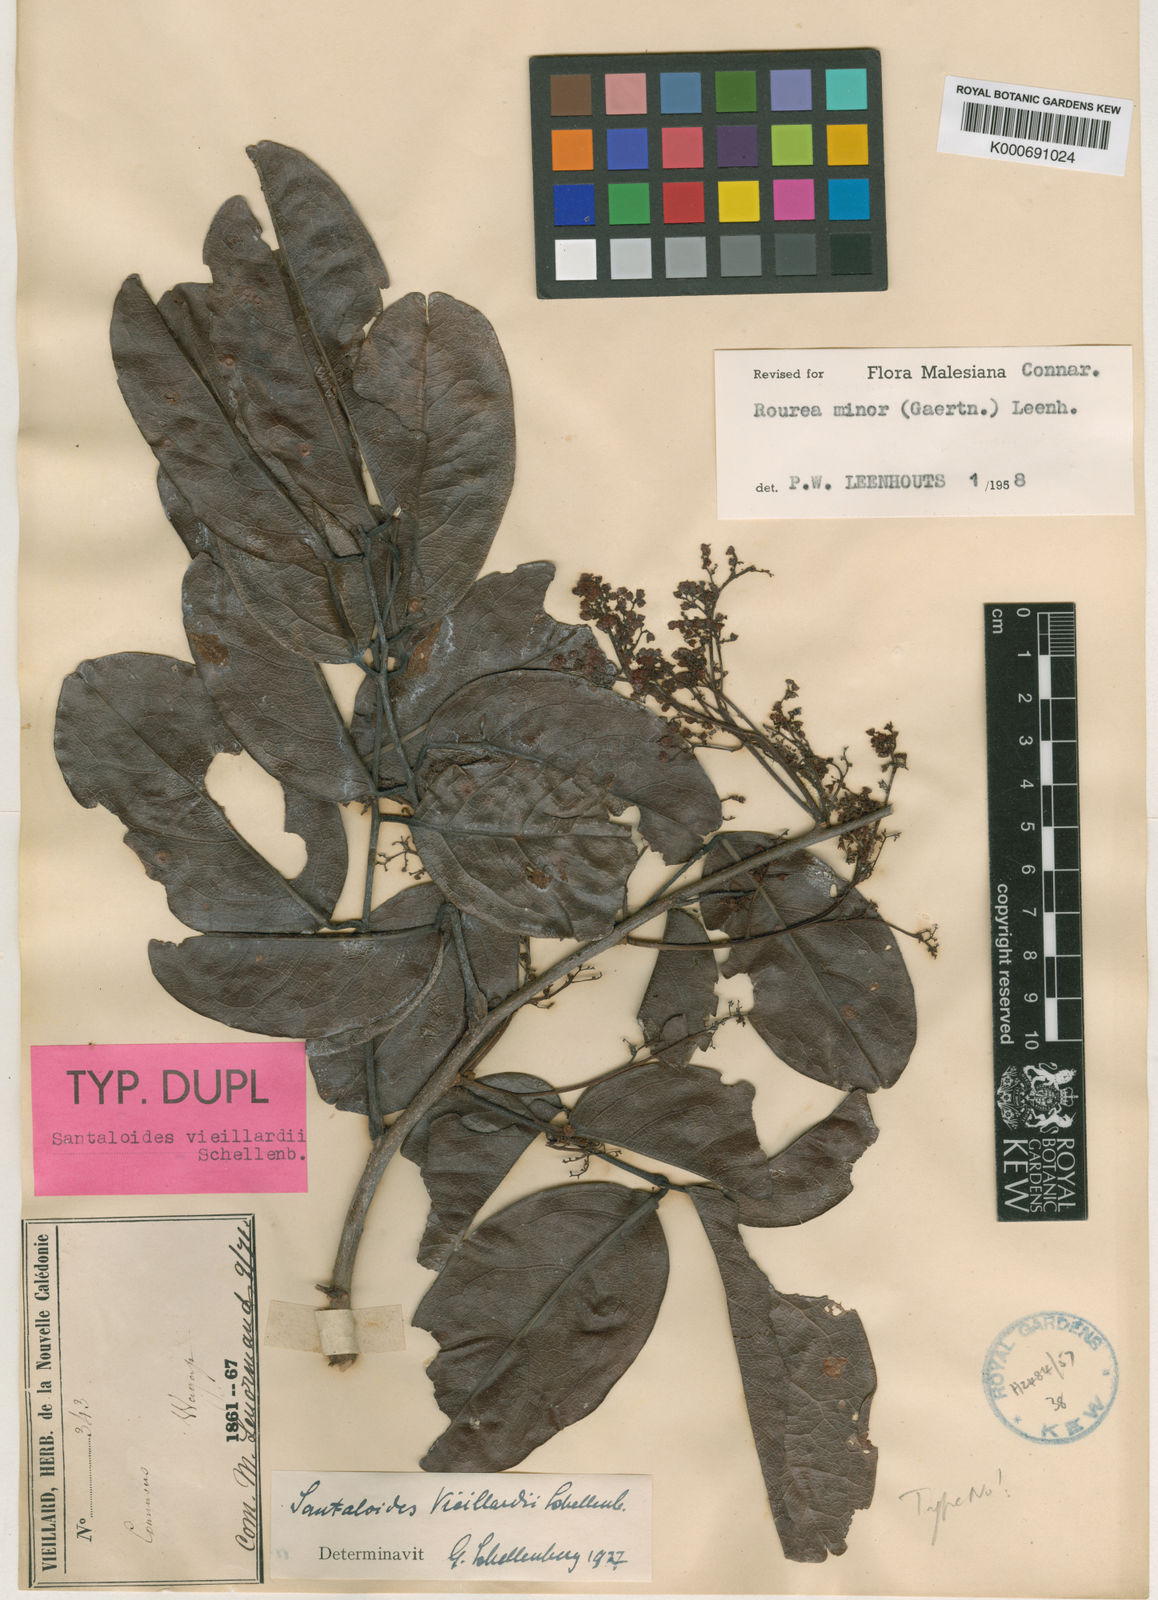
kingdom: Plantae
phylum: Tracheophyta
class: Magnoliopsida
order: Oxalidales
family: Connaraceae
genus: Rourea
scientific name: Rourea
